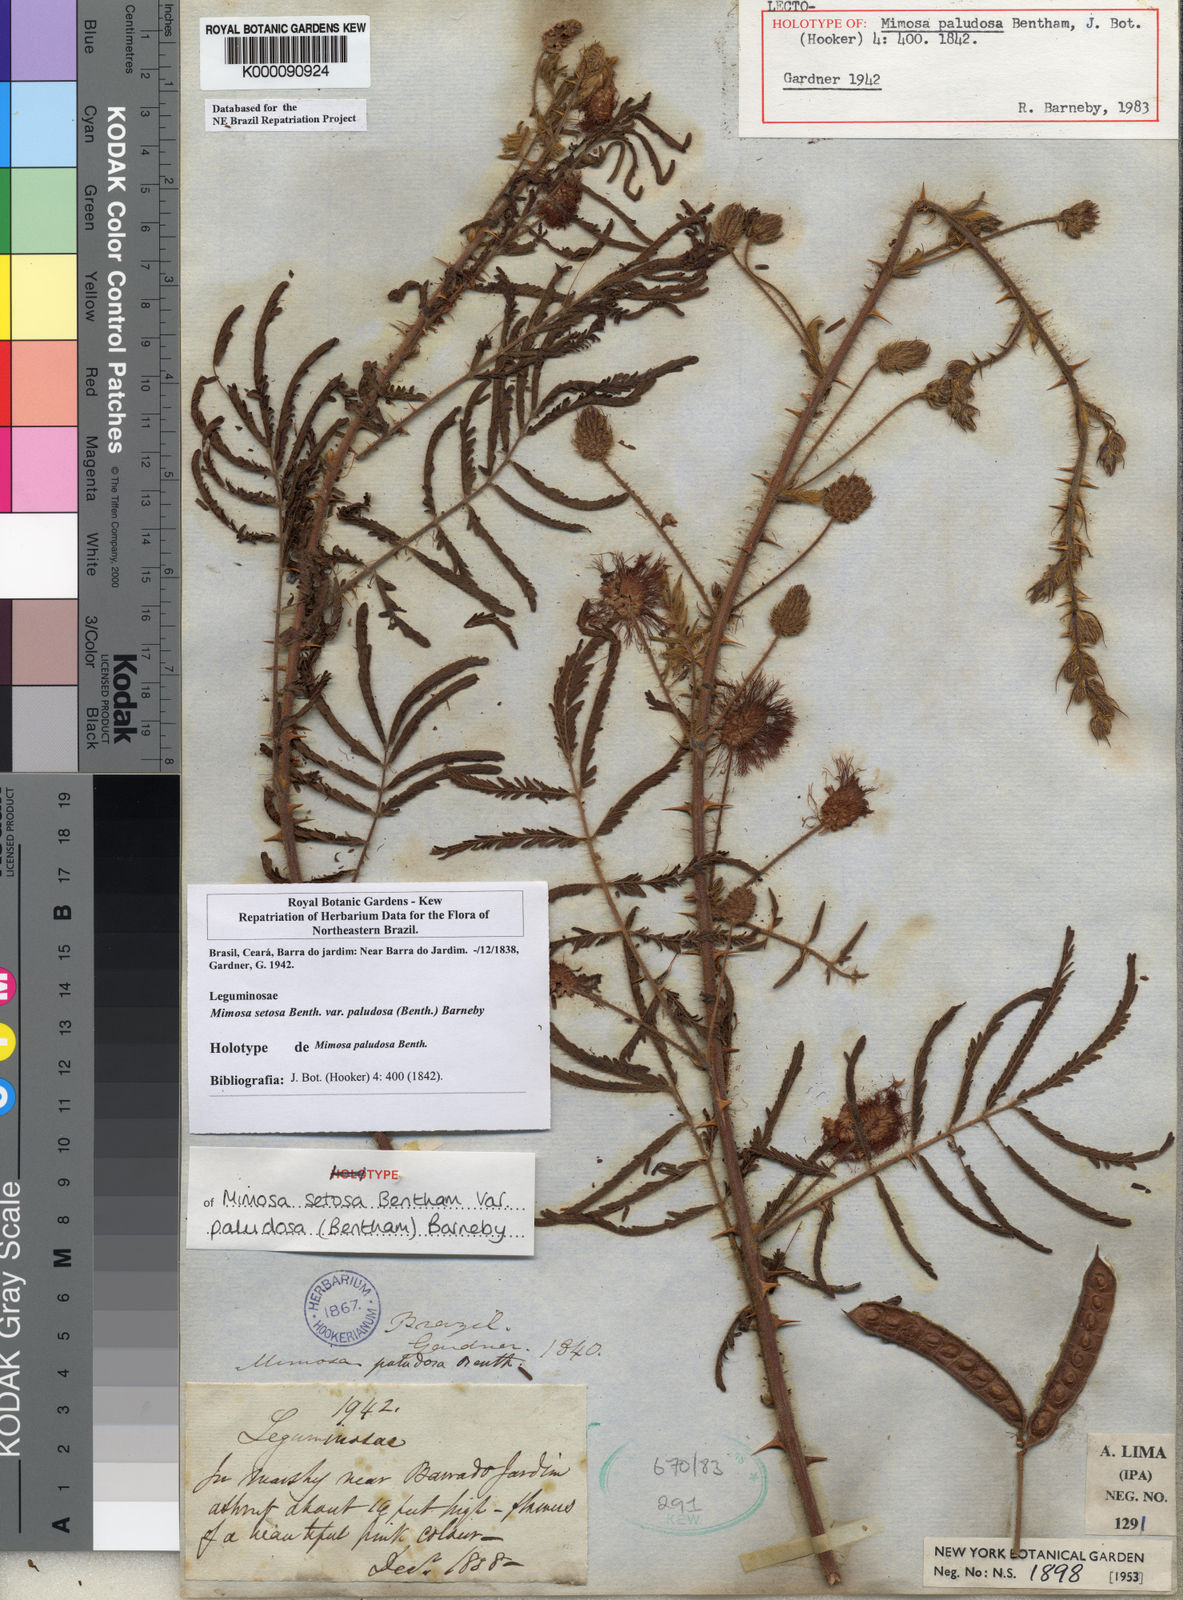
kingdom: Plantae
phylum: Tracheophyta
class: Magnoliopsida
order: Fabales
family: Fabaceae
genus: Mimosa
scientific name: Mimosa paludosa
